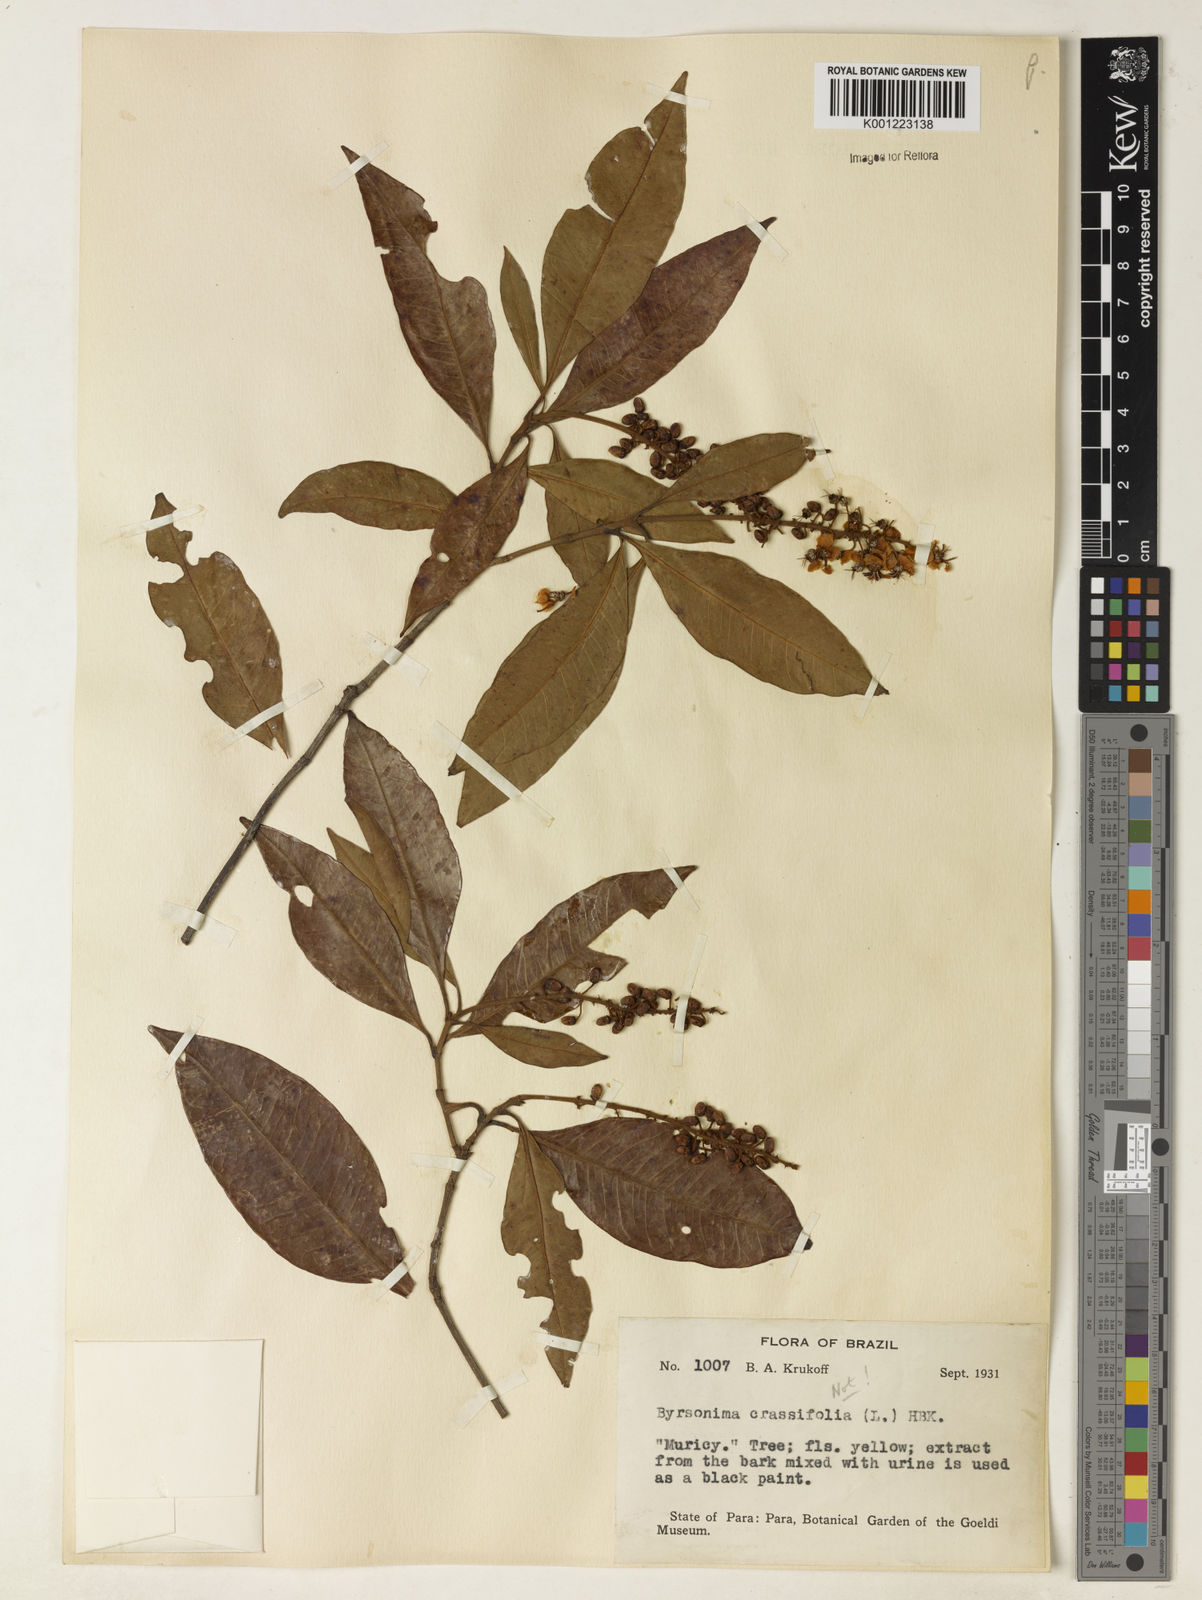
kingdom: Plantae
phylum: Tracheophyta
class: Magnoliopsida
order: Malpighiales
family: Malpighiaceae
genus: Byrsonima
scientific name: Byrsonima
